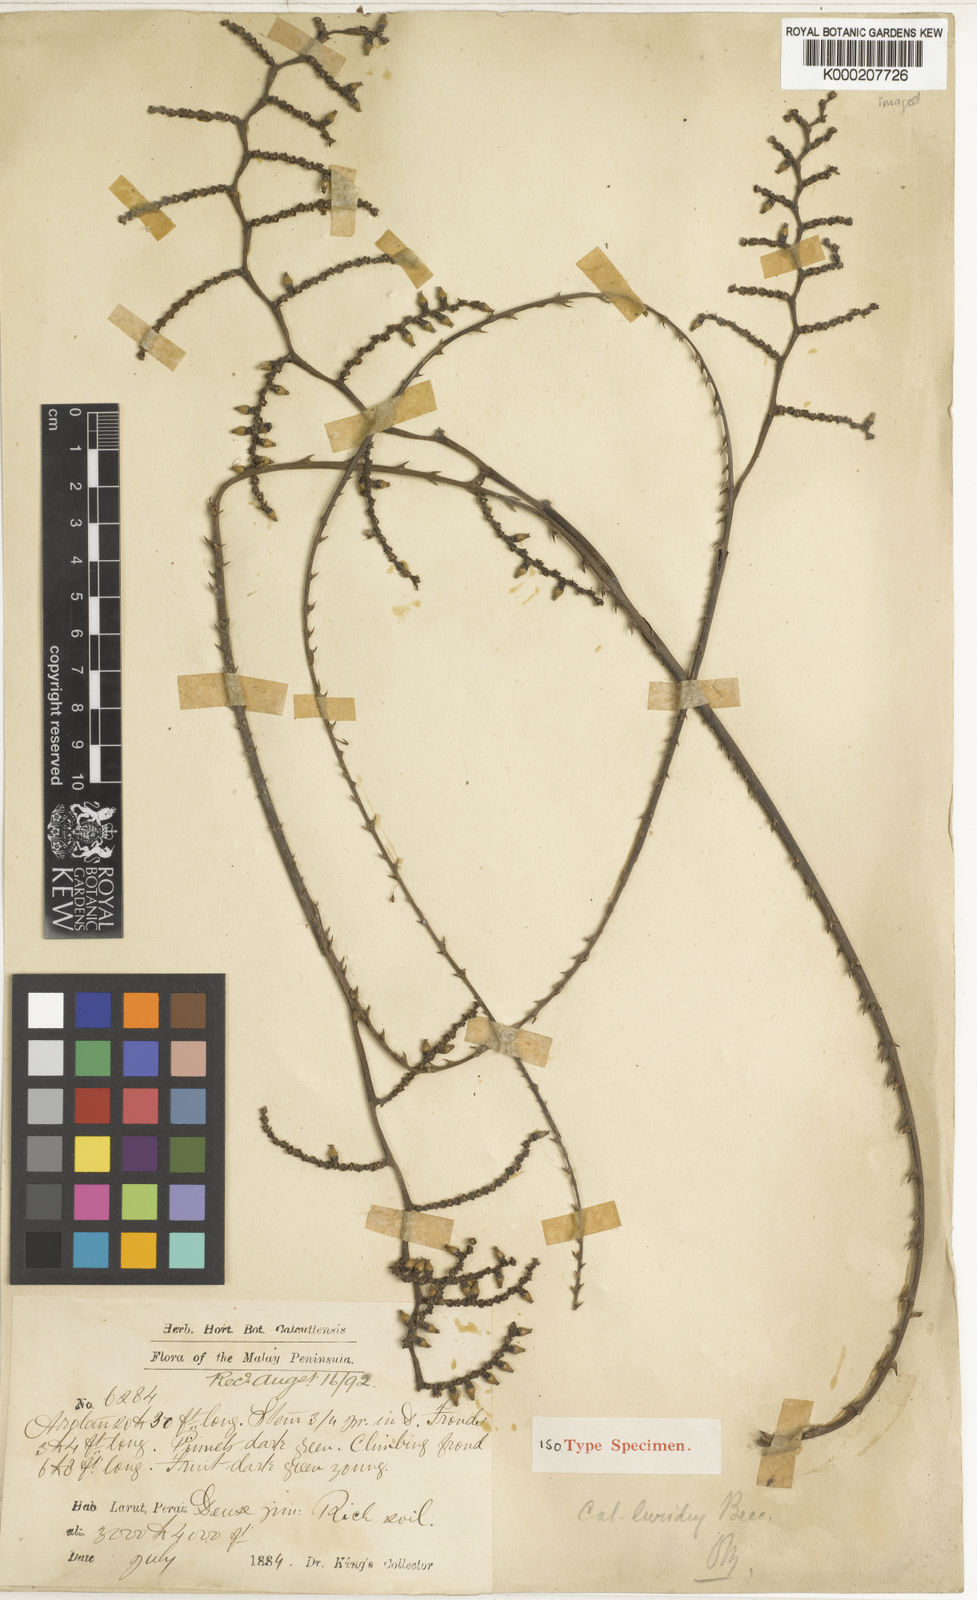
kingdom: Plantae
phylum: Tracheophyta
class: Liliopsida
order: Arecales
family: Arecaceae
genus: Calamus
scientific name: Calamus micranthus
